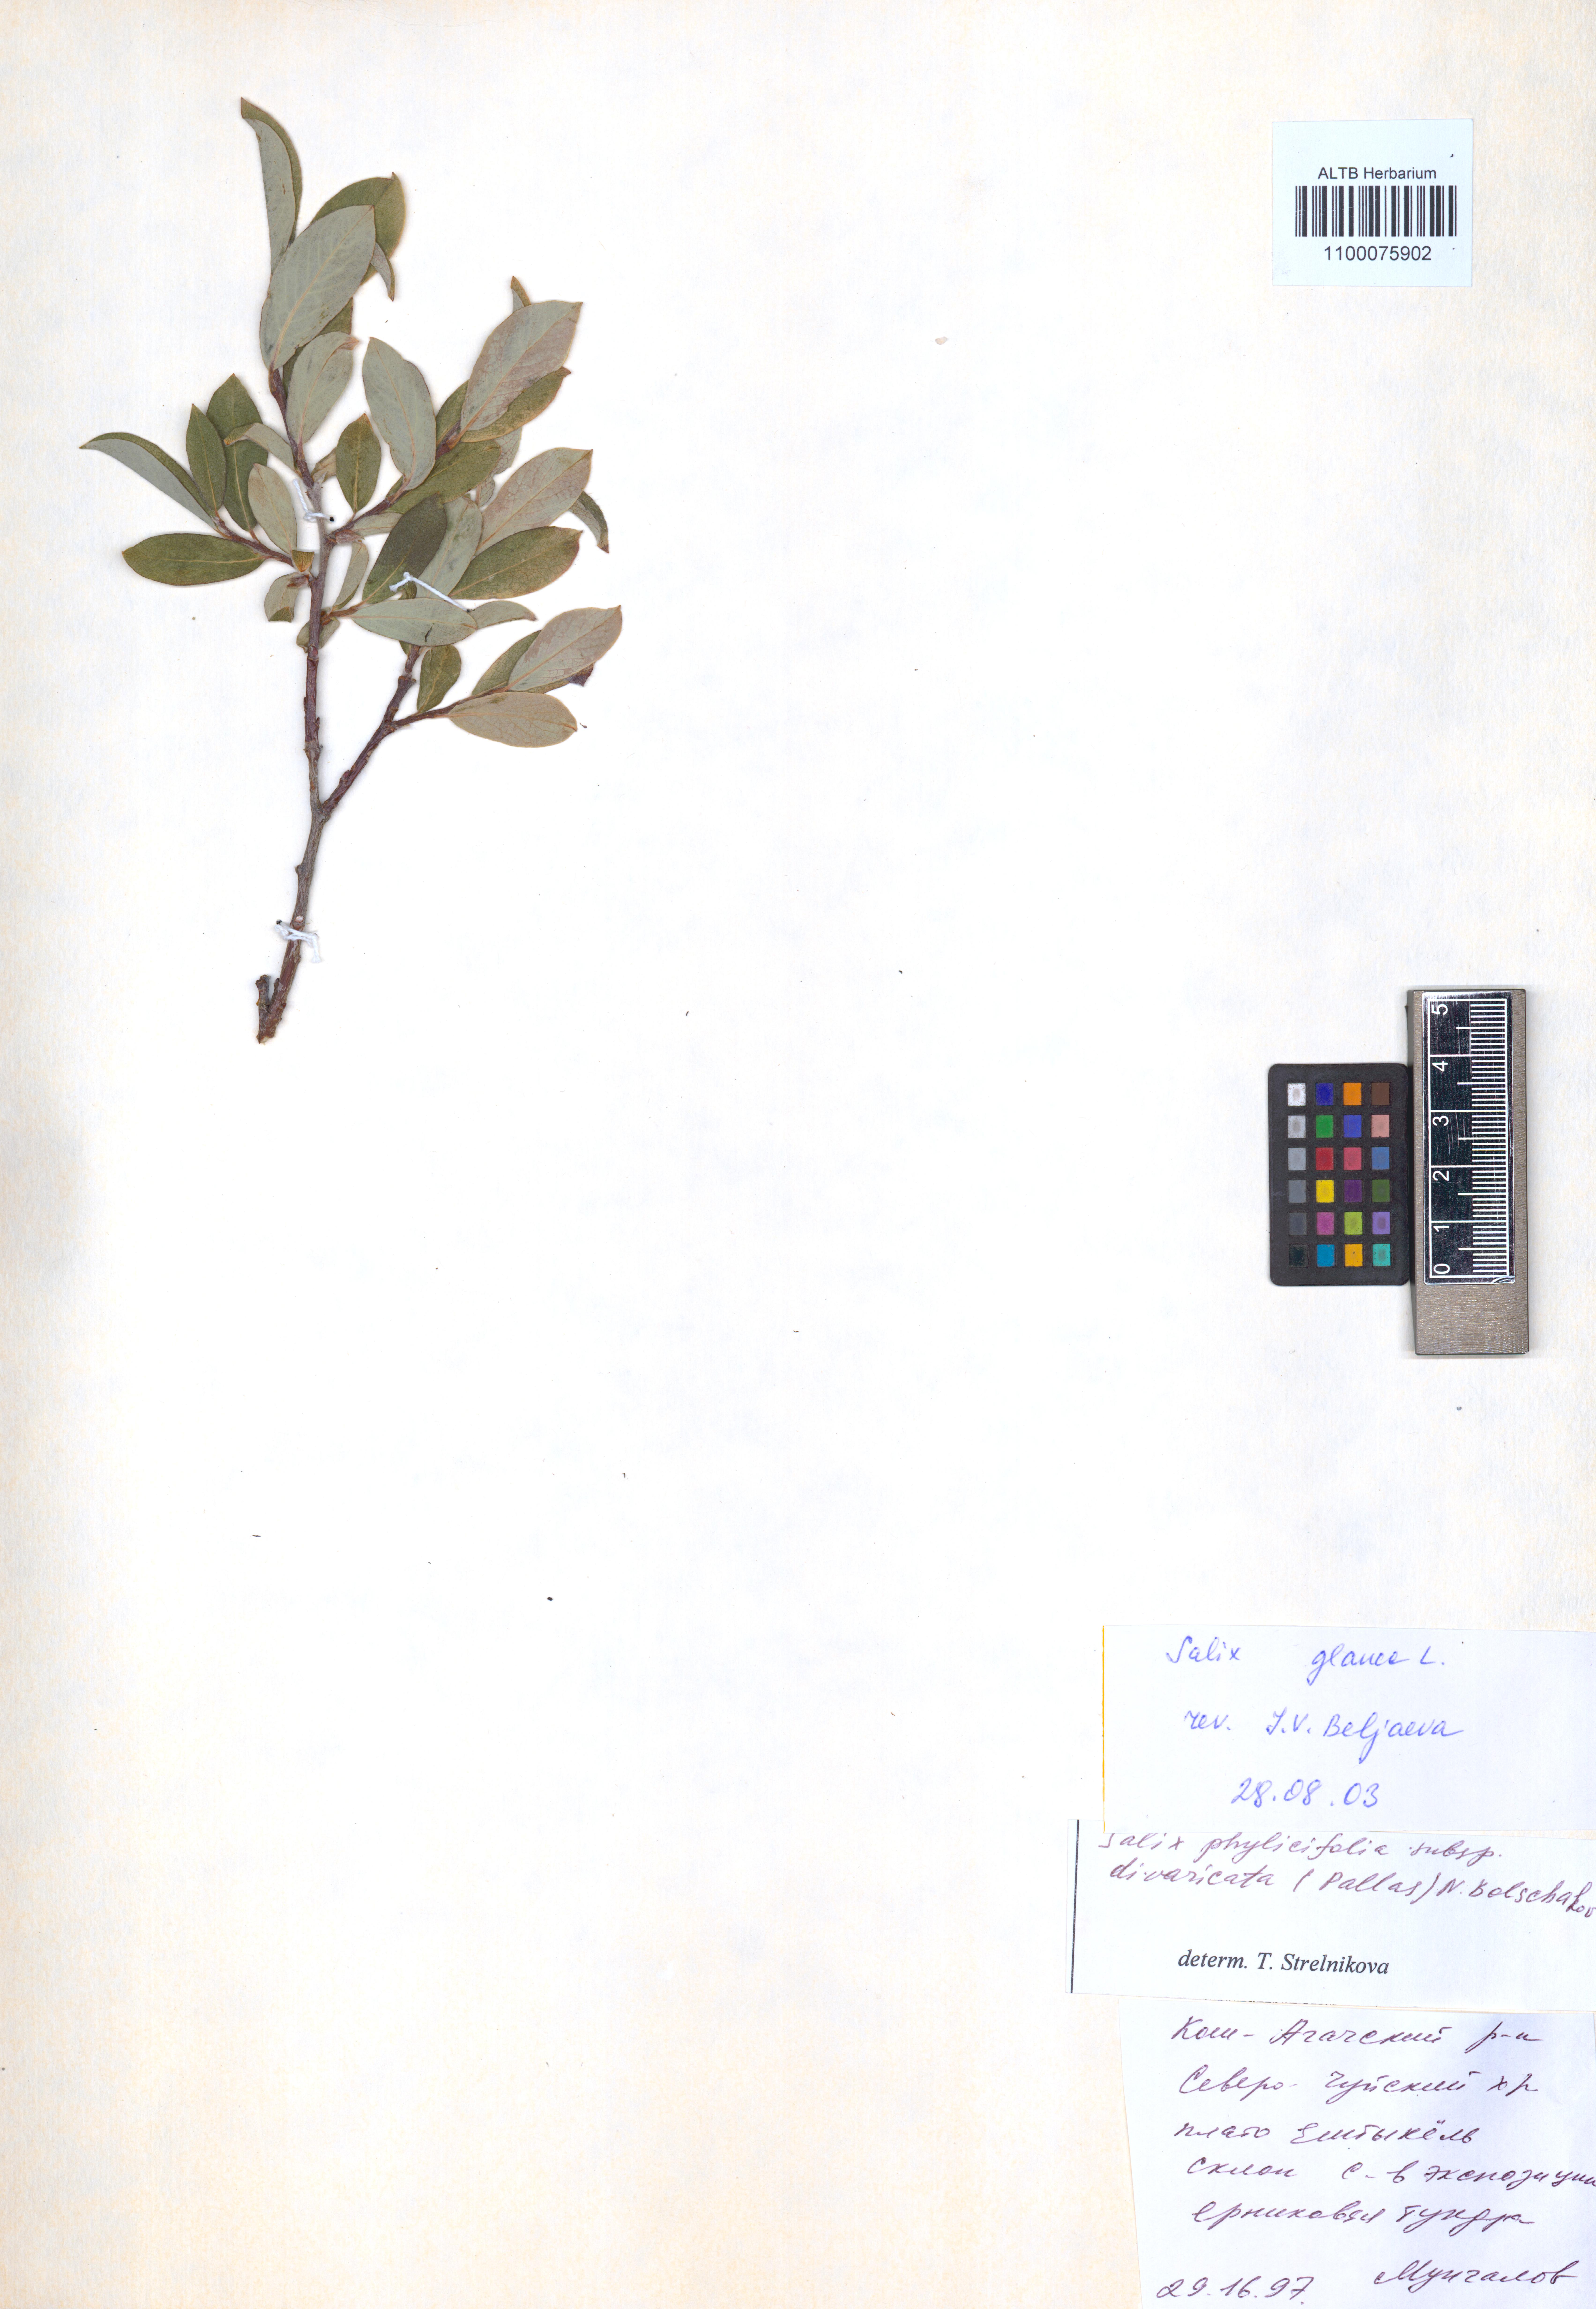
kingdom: Plantae
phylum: Tracheophyta
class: Magnoliopsida
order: Malpighiales
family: Salicaceae
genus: Salix
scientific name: Salix glauca
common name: Glaucous willow
